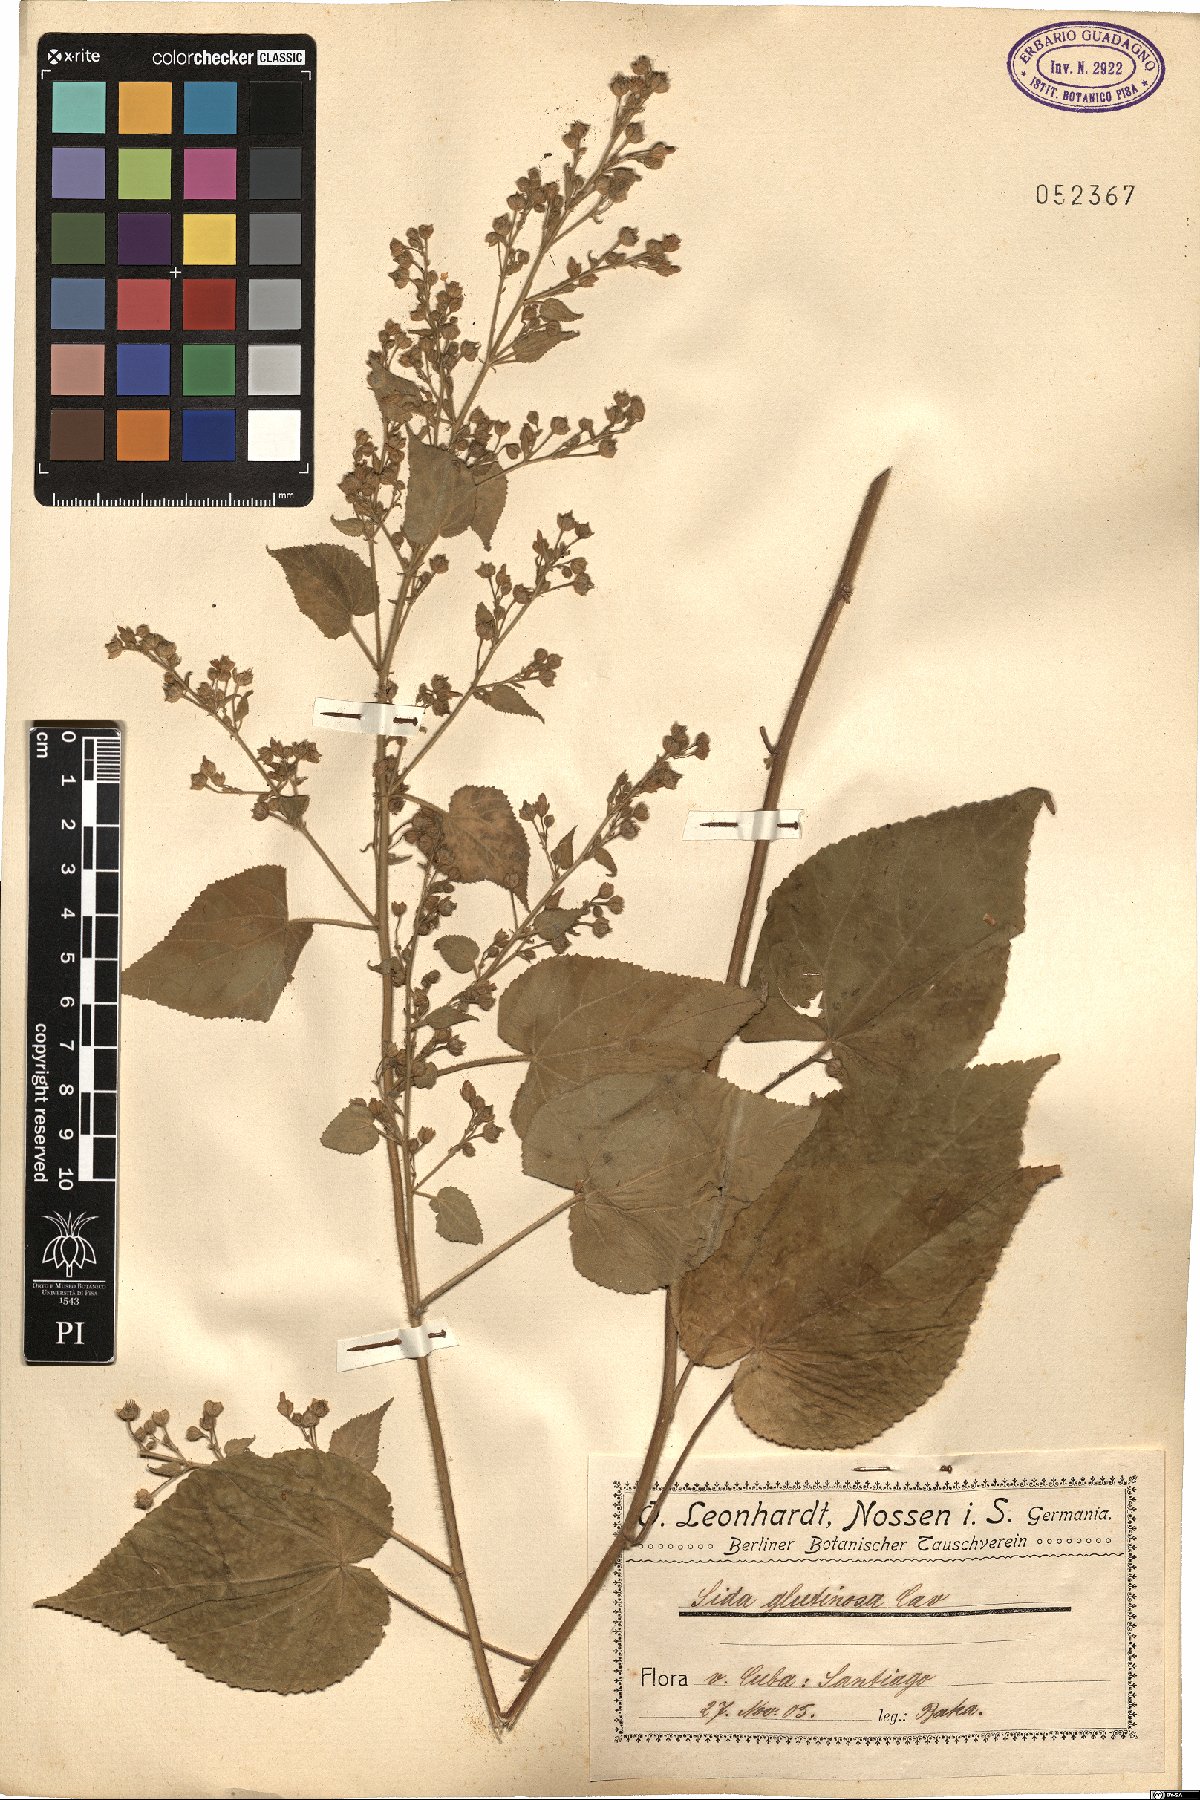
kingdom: Plantae
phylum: Tracheophyta
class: Magnoliopsida
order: Malvales
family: Malvaceae
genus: Sida
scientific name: Sida glutinosa
